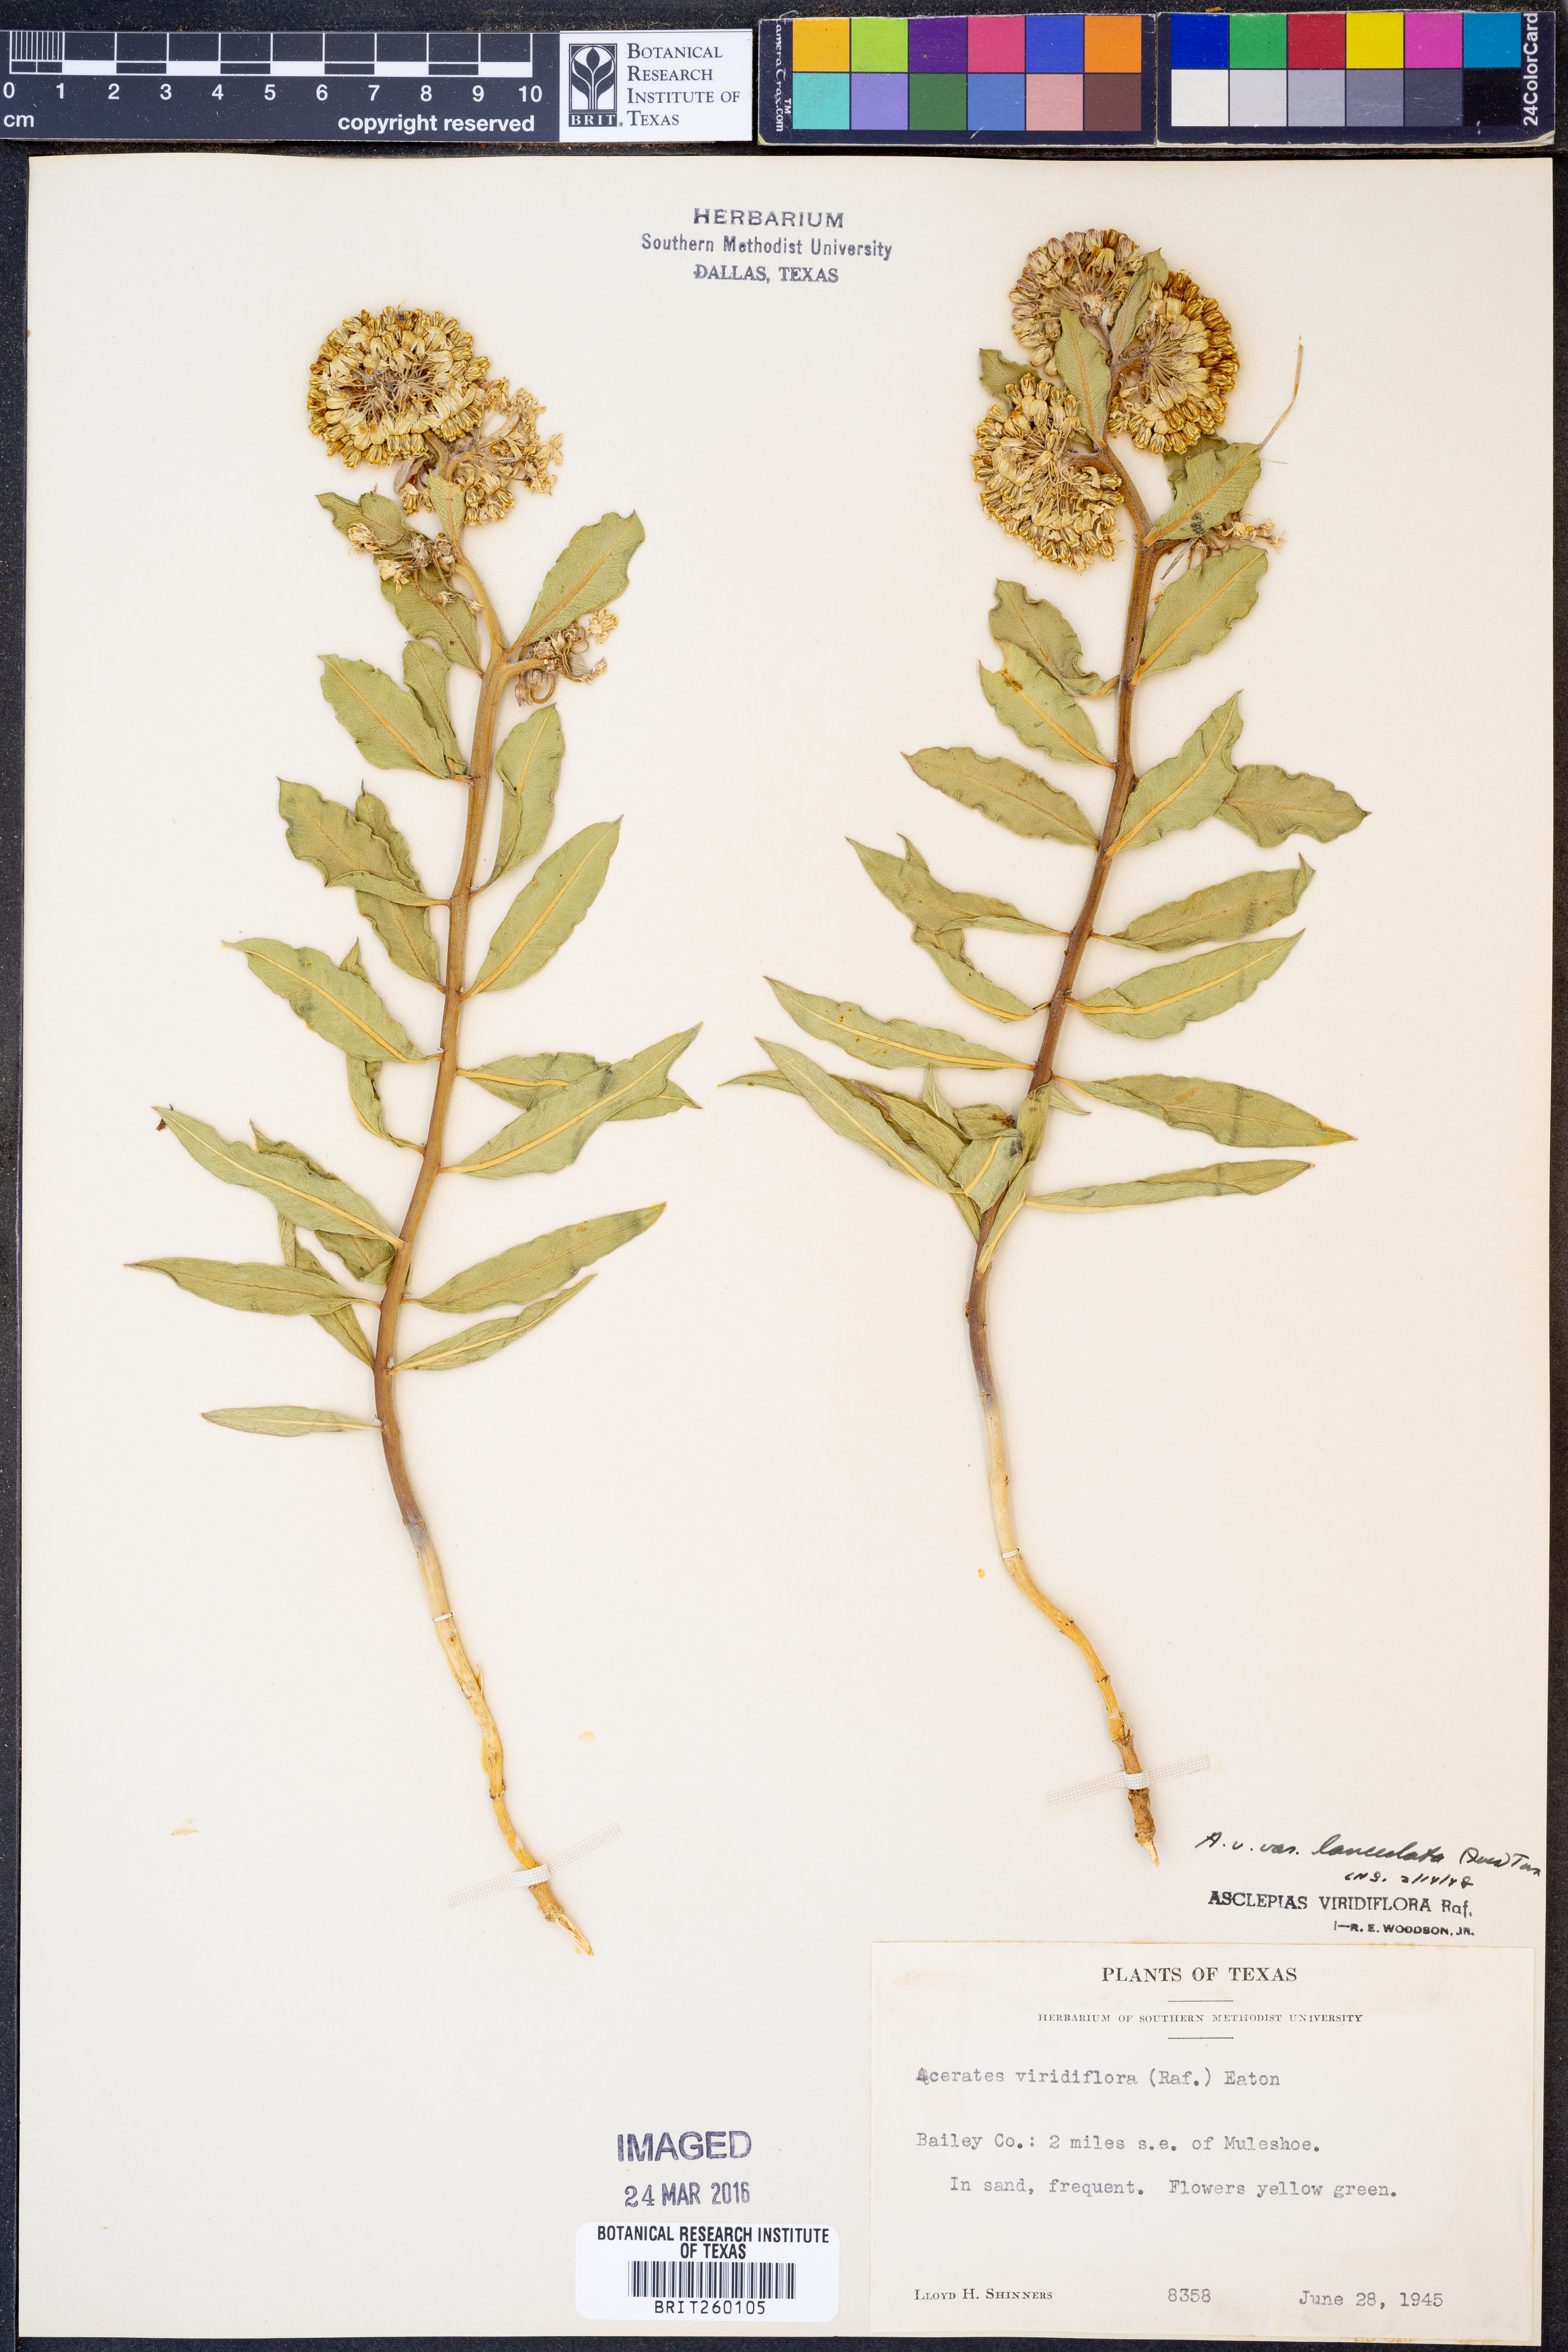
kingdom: Plantae
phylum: Tracheophyta
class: Magnoliopsida
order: Gentianales
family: Apocynaceae
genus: Asclepias
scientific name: Asclepias viridiflora
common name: Green comet milkweed
